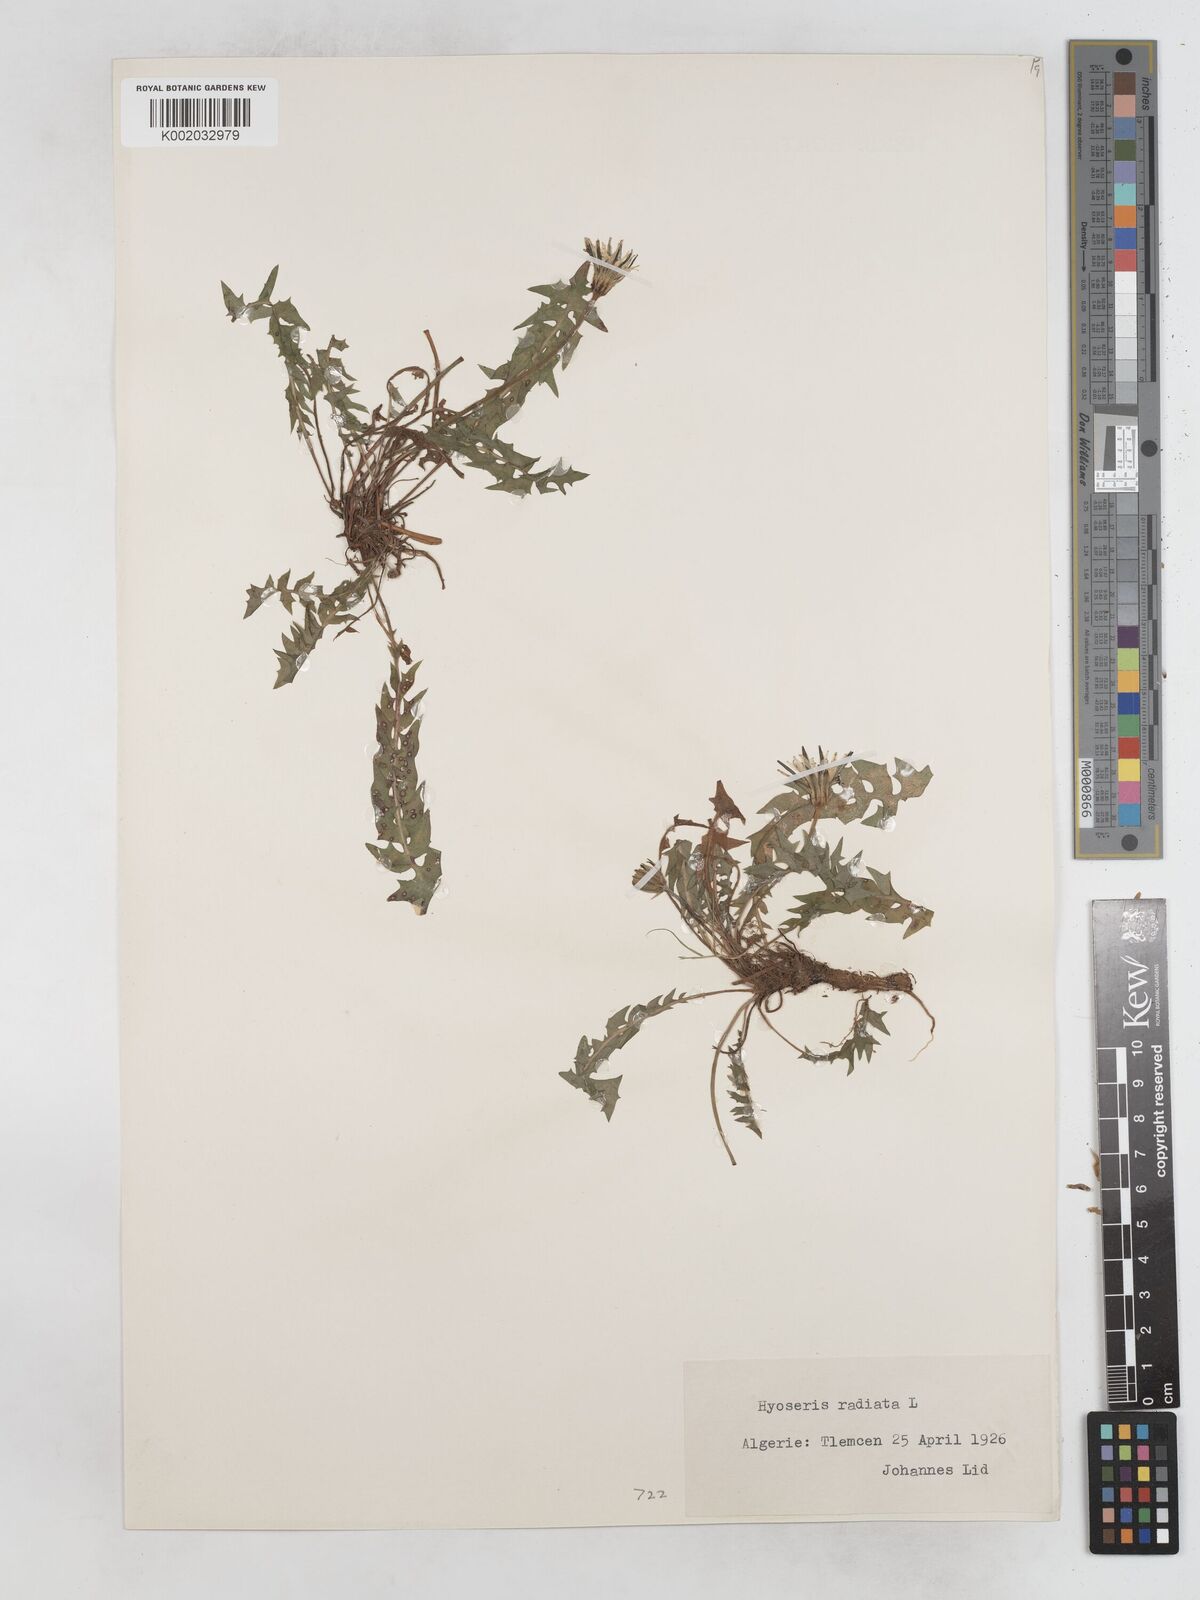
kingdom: Plantae
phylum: Tracheophyta
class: Magnoliopsida
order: Asterales
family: Asteraceae
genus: Hyoseris
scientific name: Hyoseris radiata
